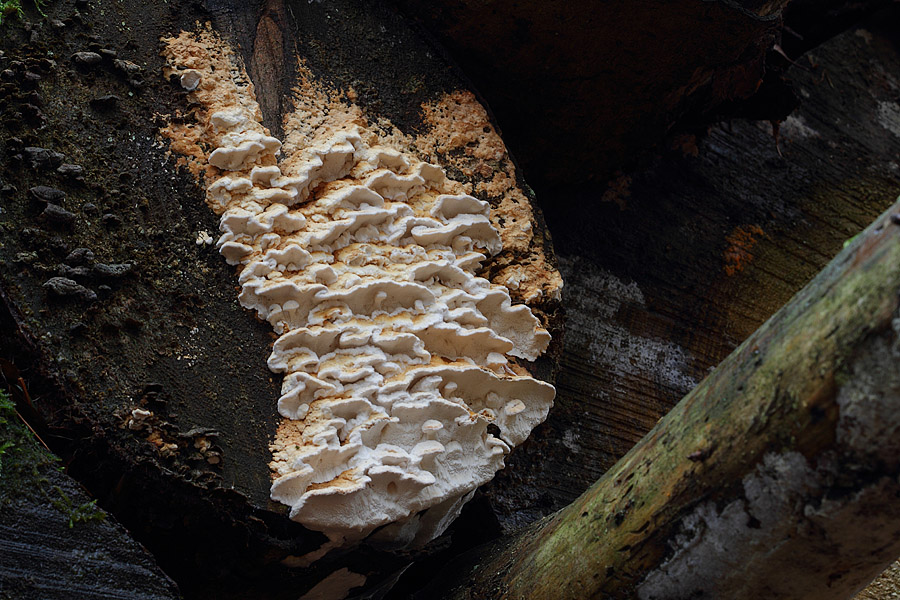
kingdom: Fungi
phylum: Basidiomycota
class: Agaricomycetes
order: Polyporales
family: Fomitopsidaceae
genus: Neoantrodia
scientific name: Neoantrodia serialis
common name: række-sejporesvamp
